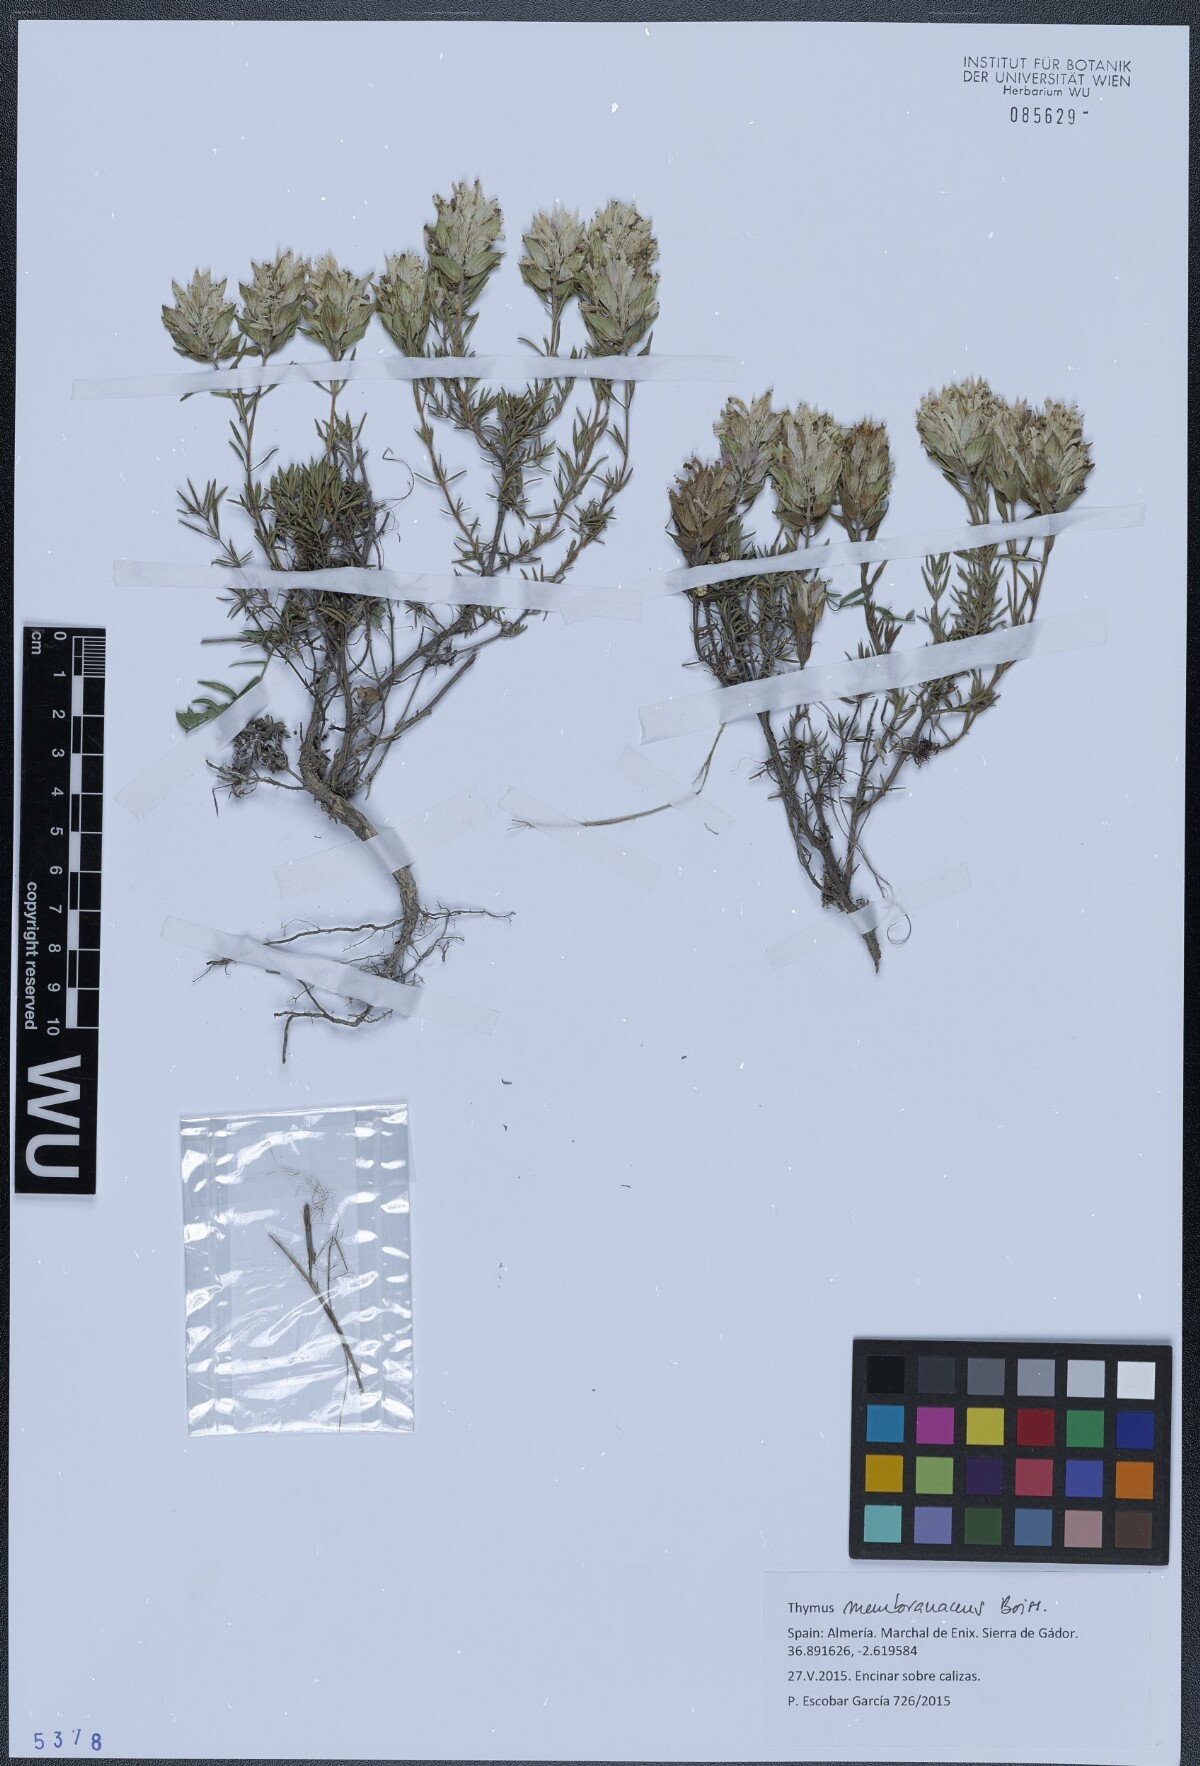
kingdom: Plantae
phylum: Tracheophyta
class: Magnoliopsida
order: Lamiales
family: Lamiaceae
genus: Thymus
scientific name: Thymus membranaceus
